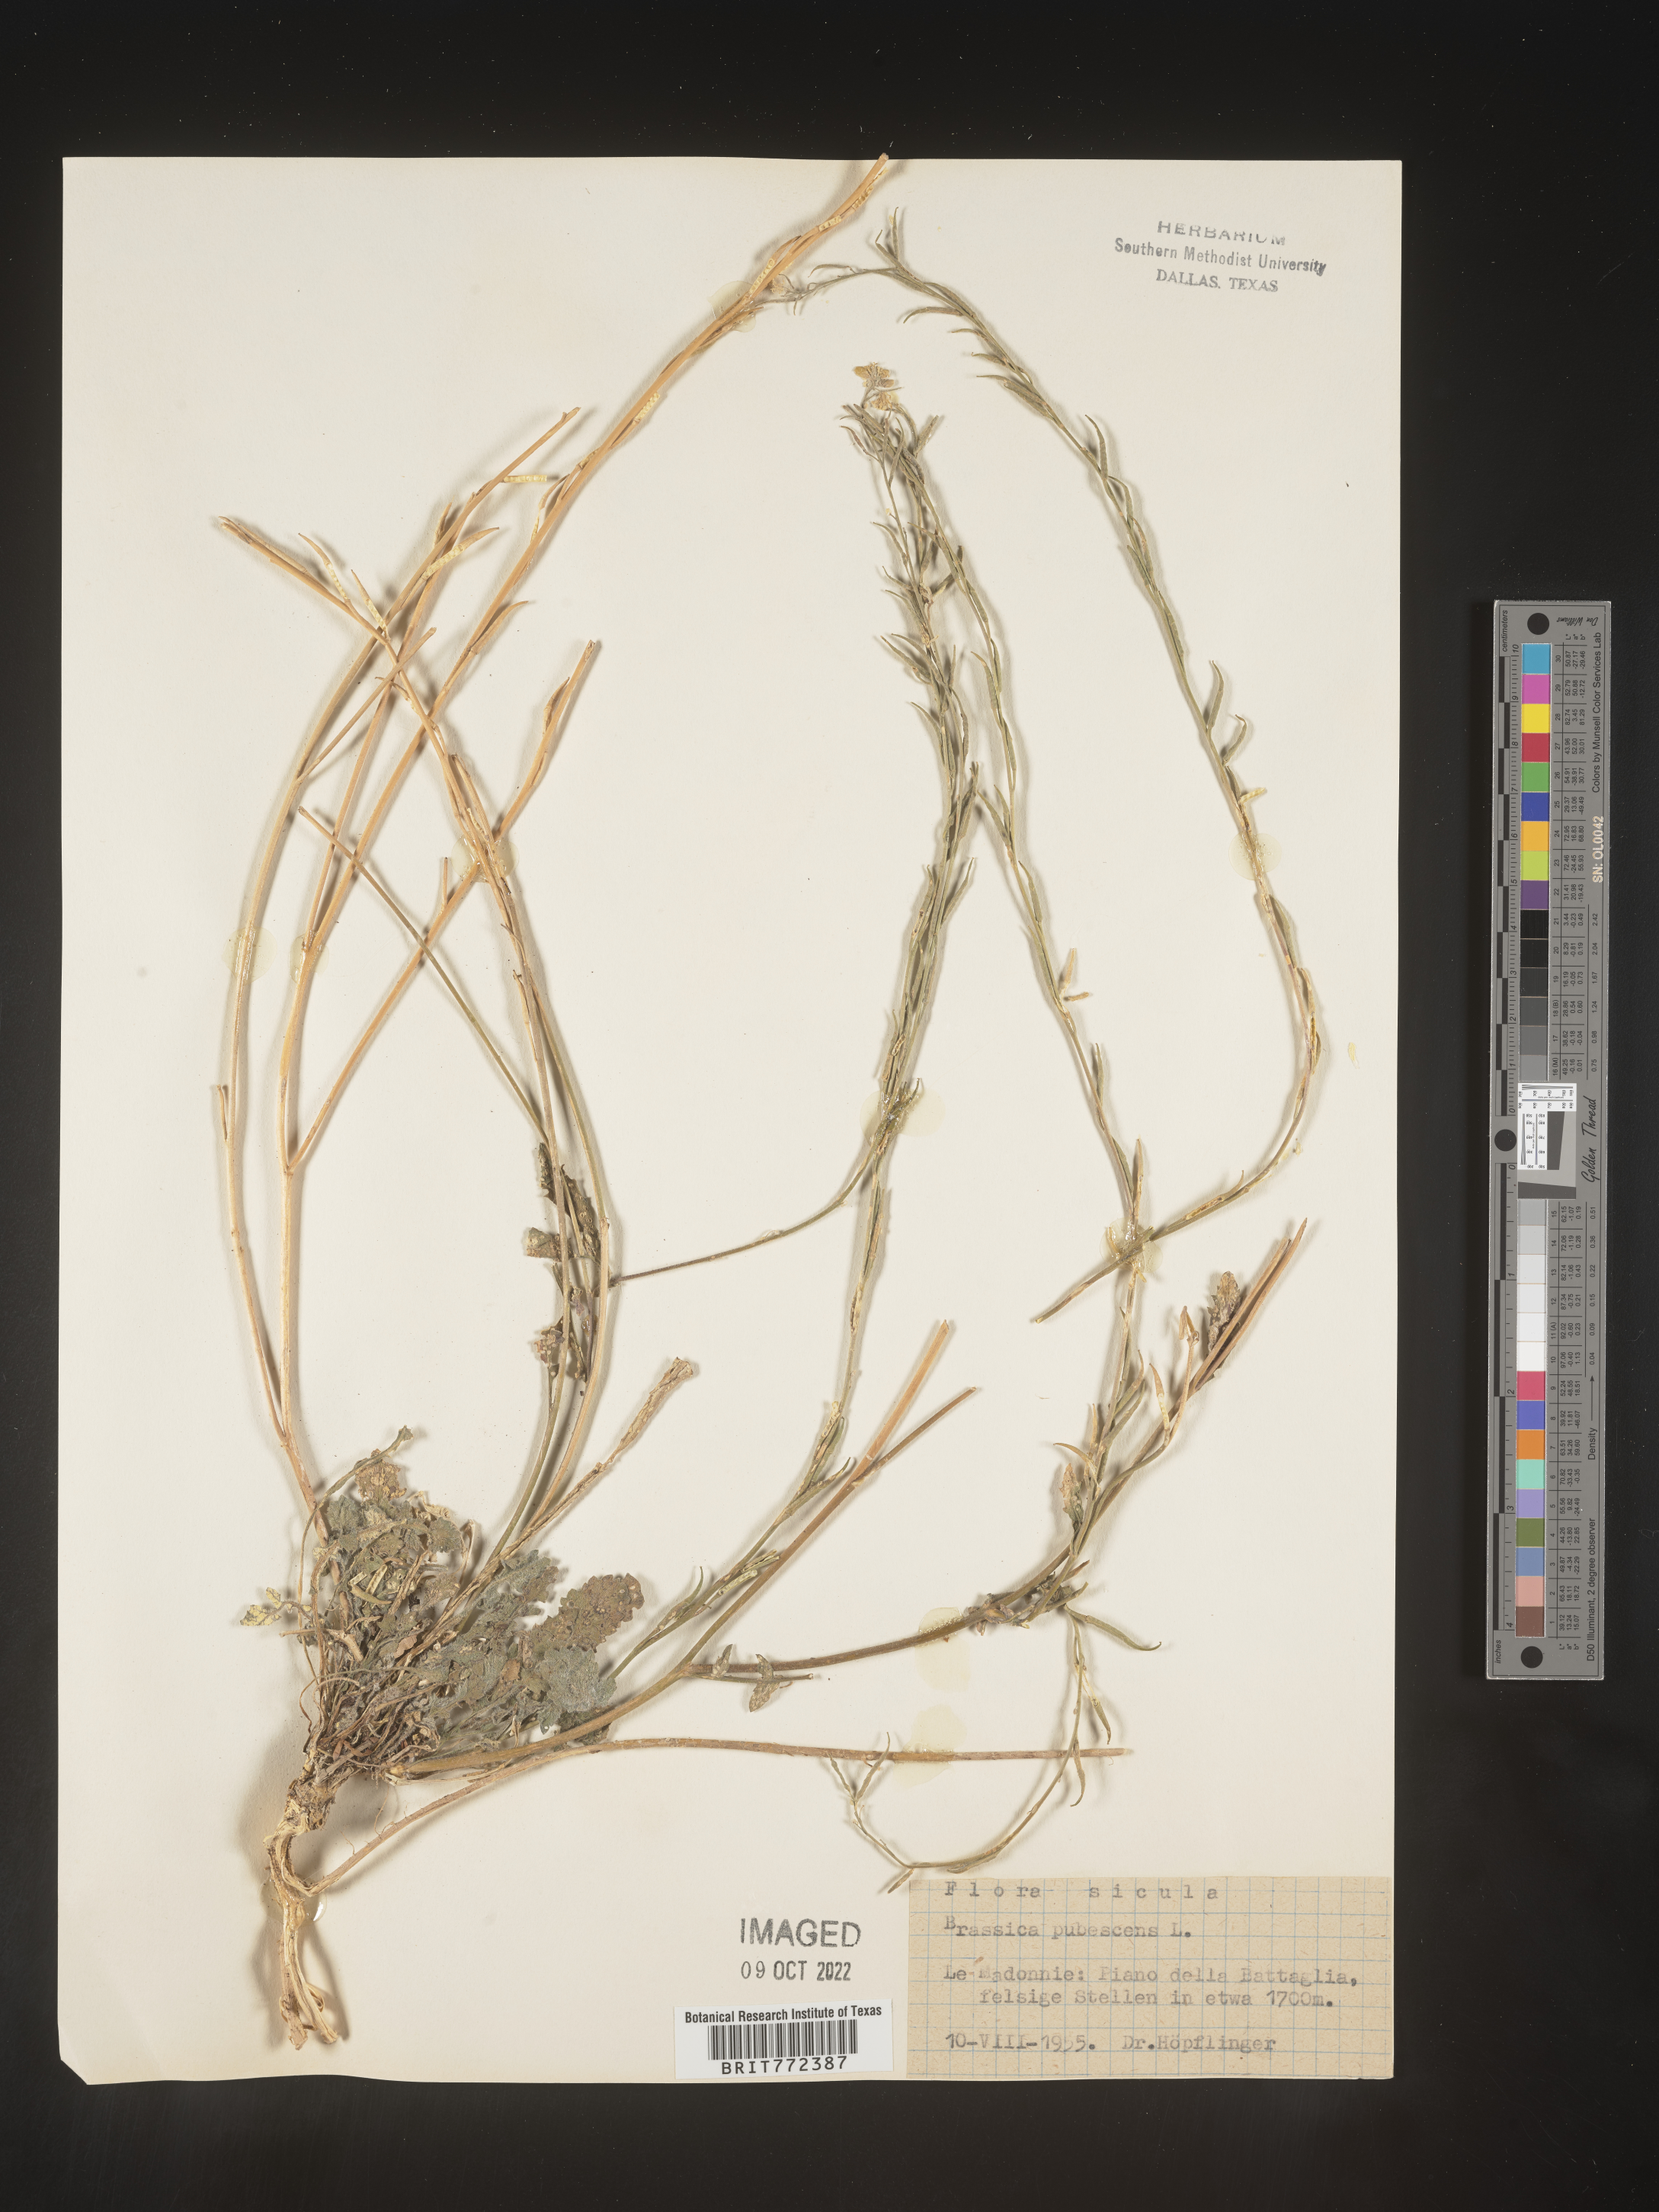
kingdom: Plantae
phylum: Tracheophyta
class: Magnoliopsida
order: Brassicales
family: Brassicaceae
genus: Brassica
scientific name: Brassica
